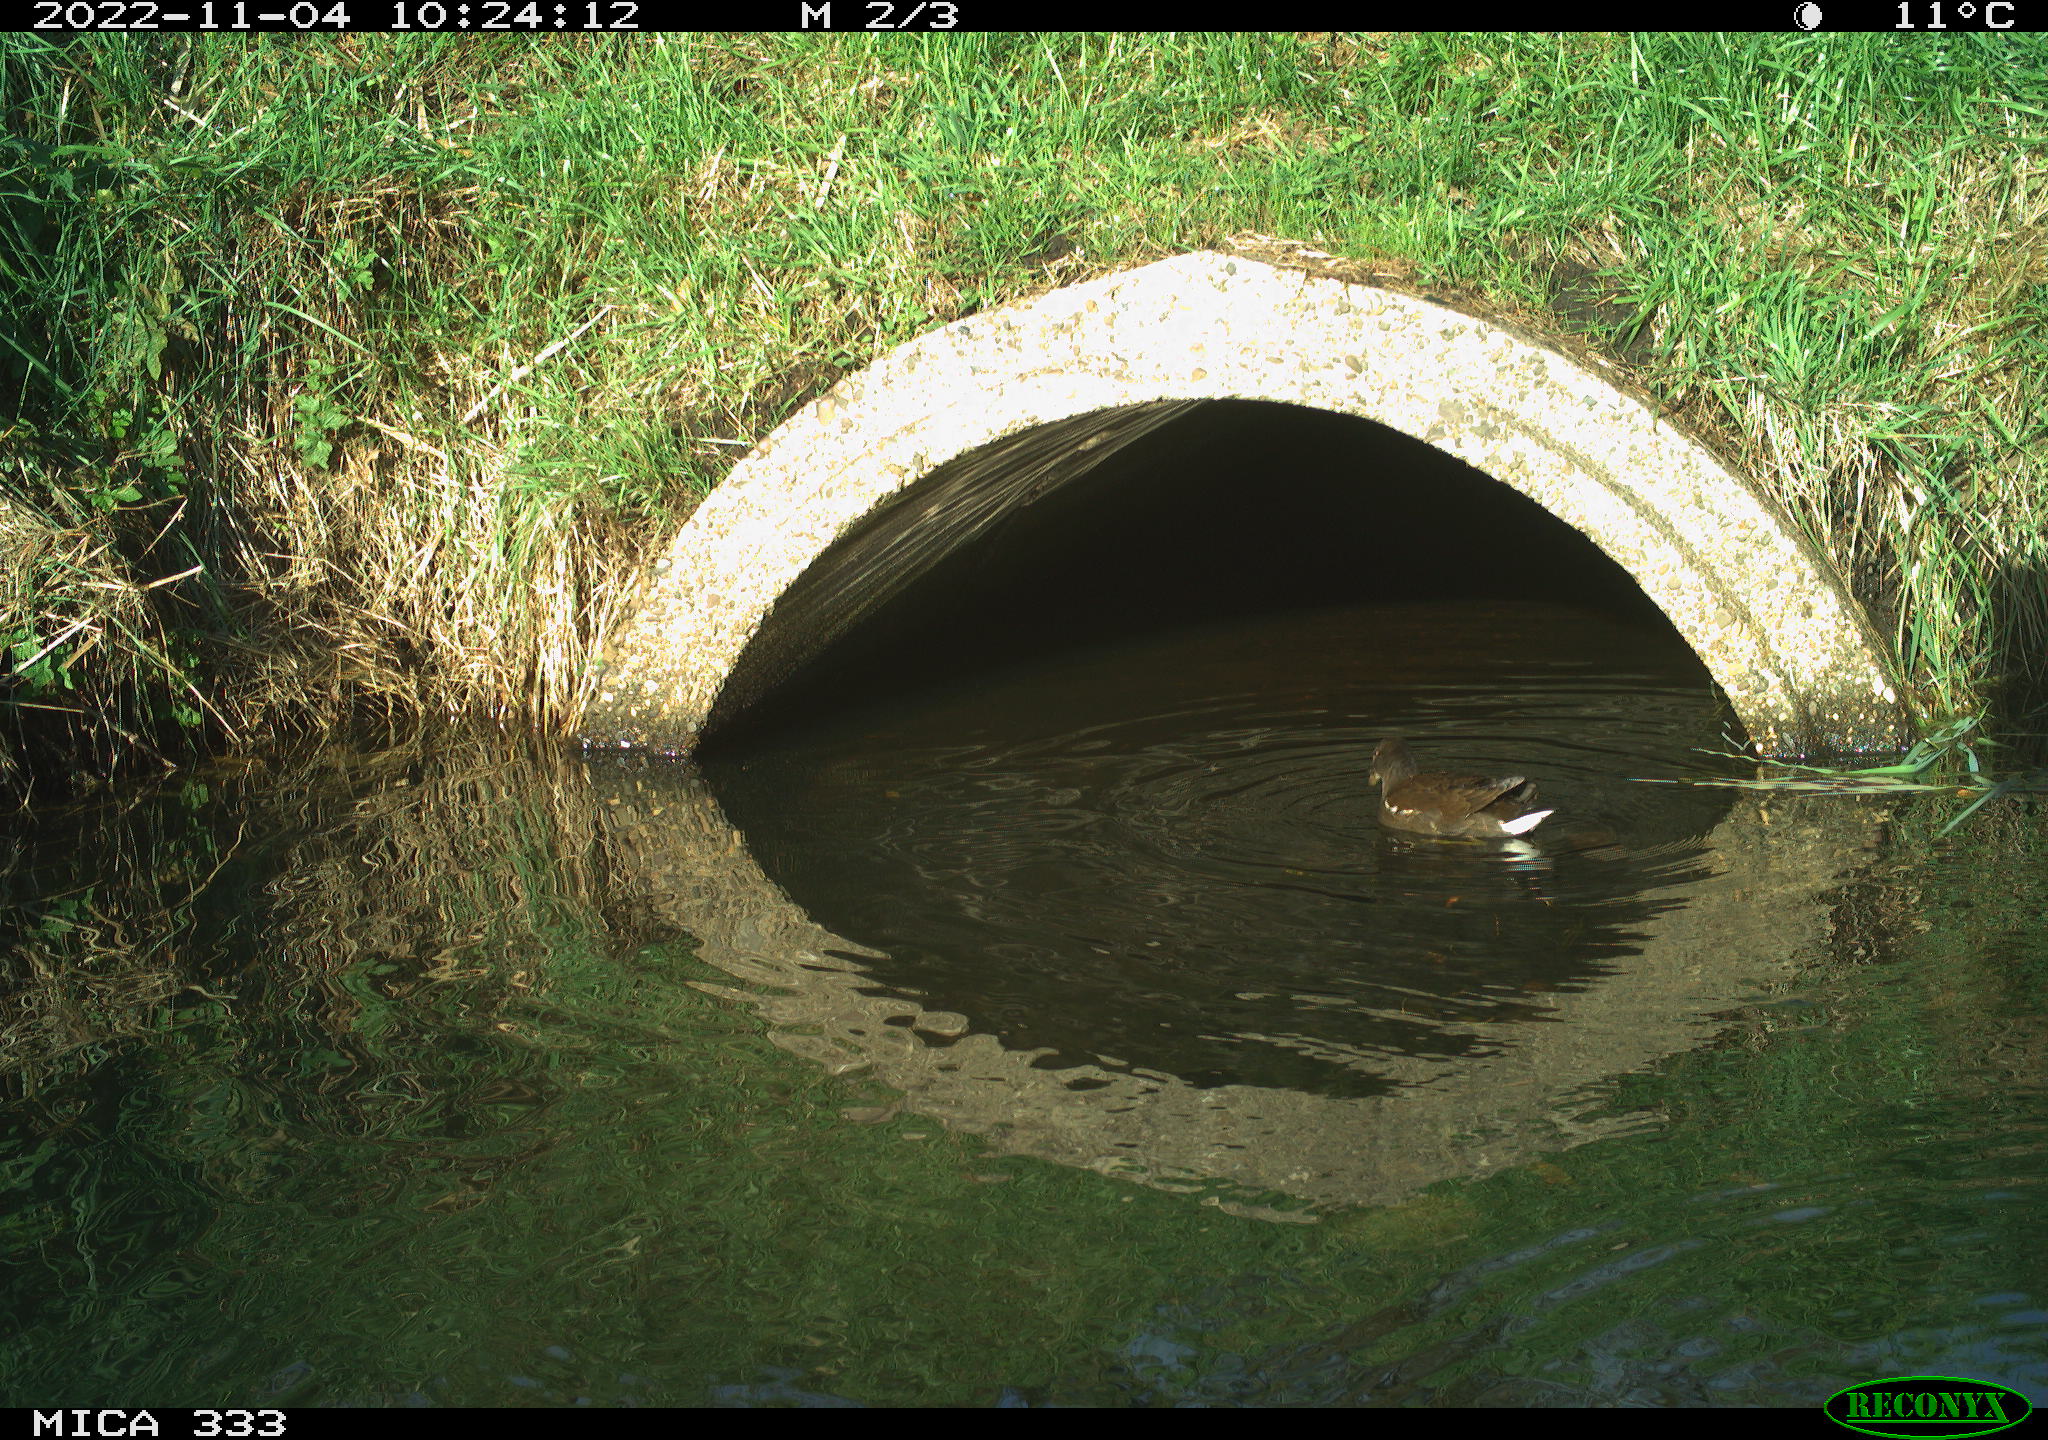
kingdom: Animalia
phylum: Chordata
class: Aves
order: Gruiformes
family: Rallidae
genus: Gallinula
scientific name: Gallinula chloropus
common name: Common moorhen
